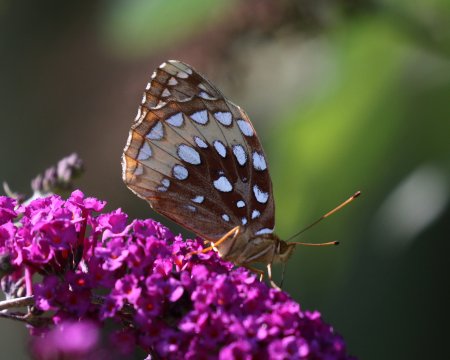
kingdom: Animalia
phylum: Arthropoda
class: Insecta
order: Lepidoptera
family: Nymphalidae
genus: Speyeria
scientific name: Speyeria cybele
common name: Great Spangled Fritillary
